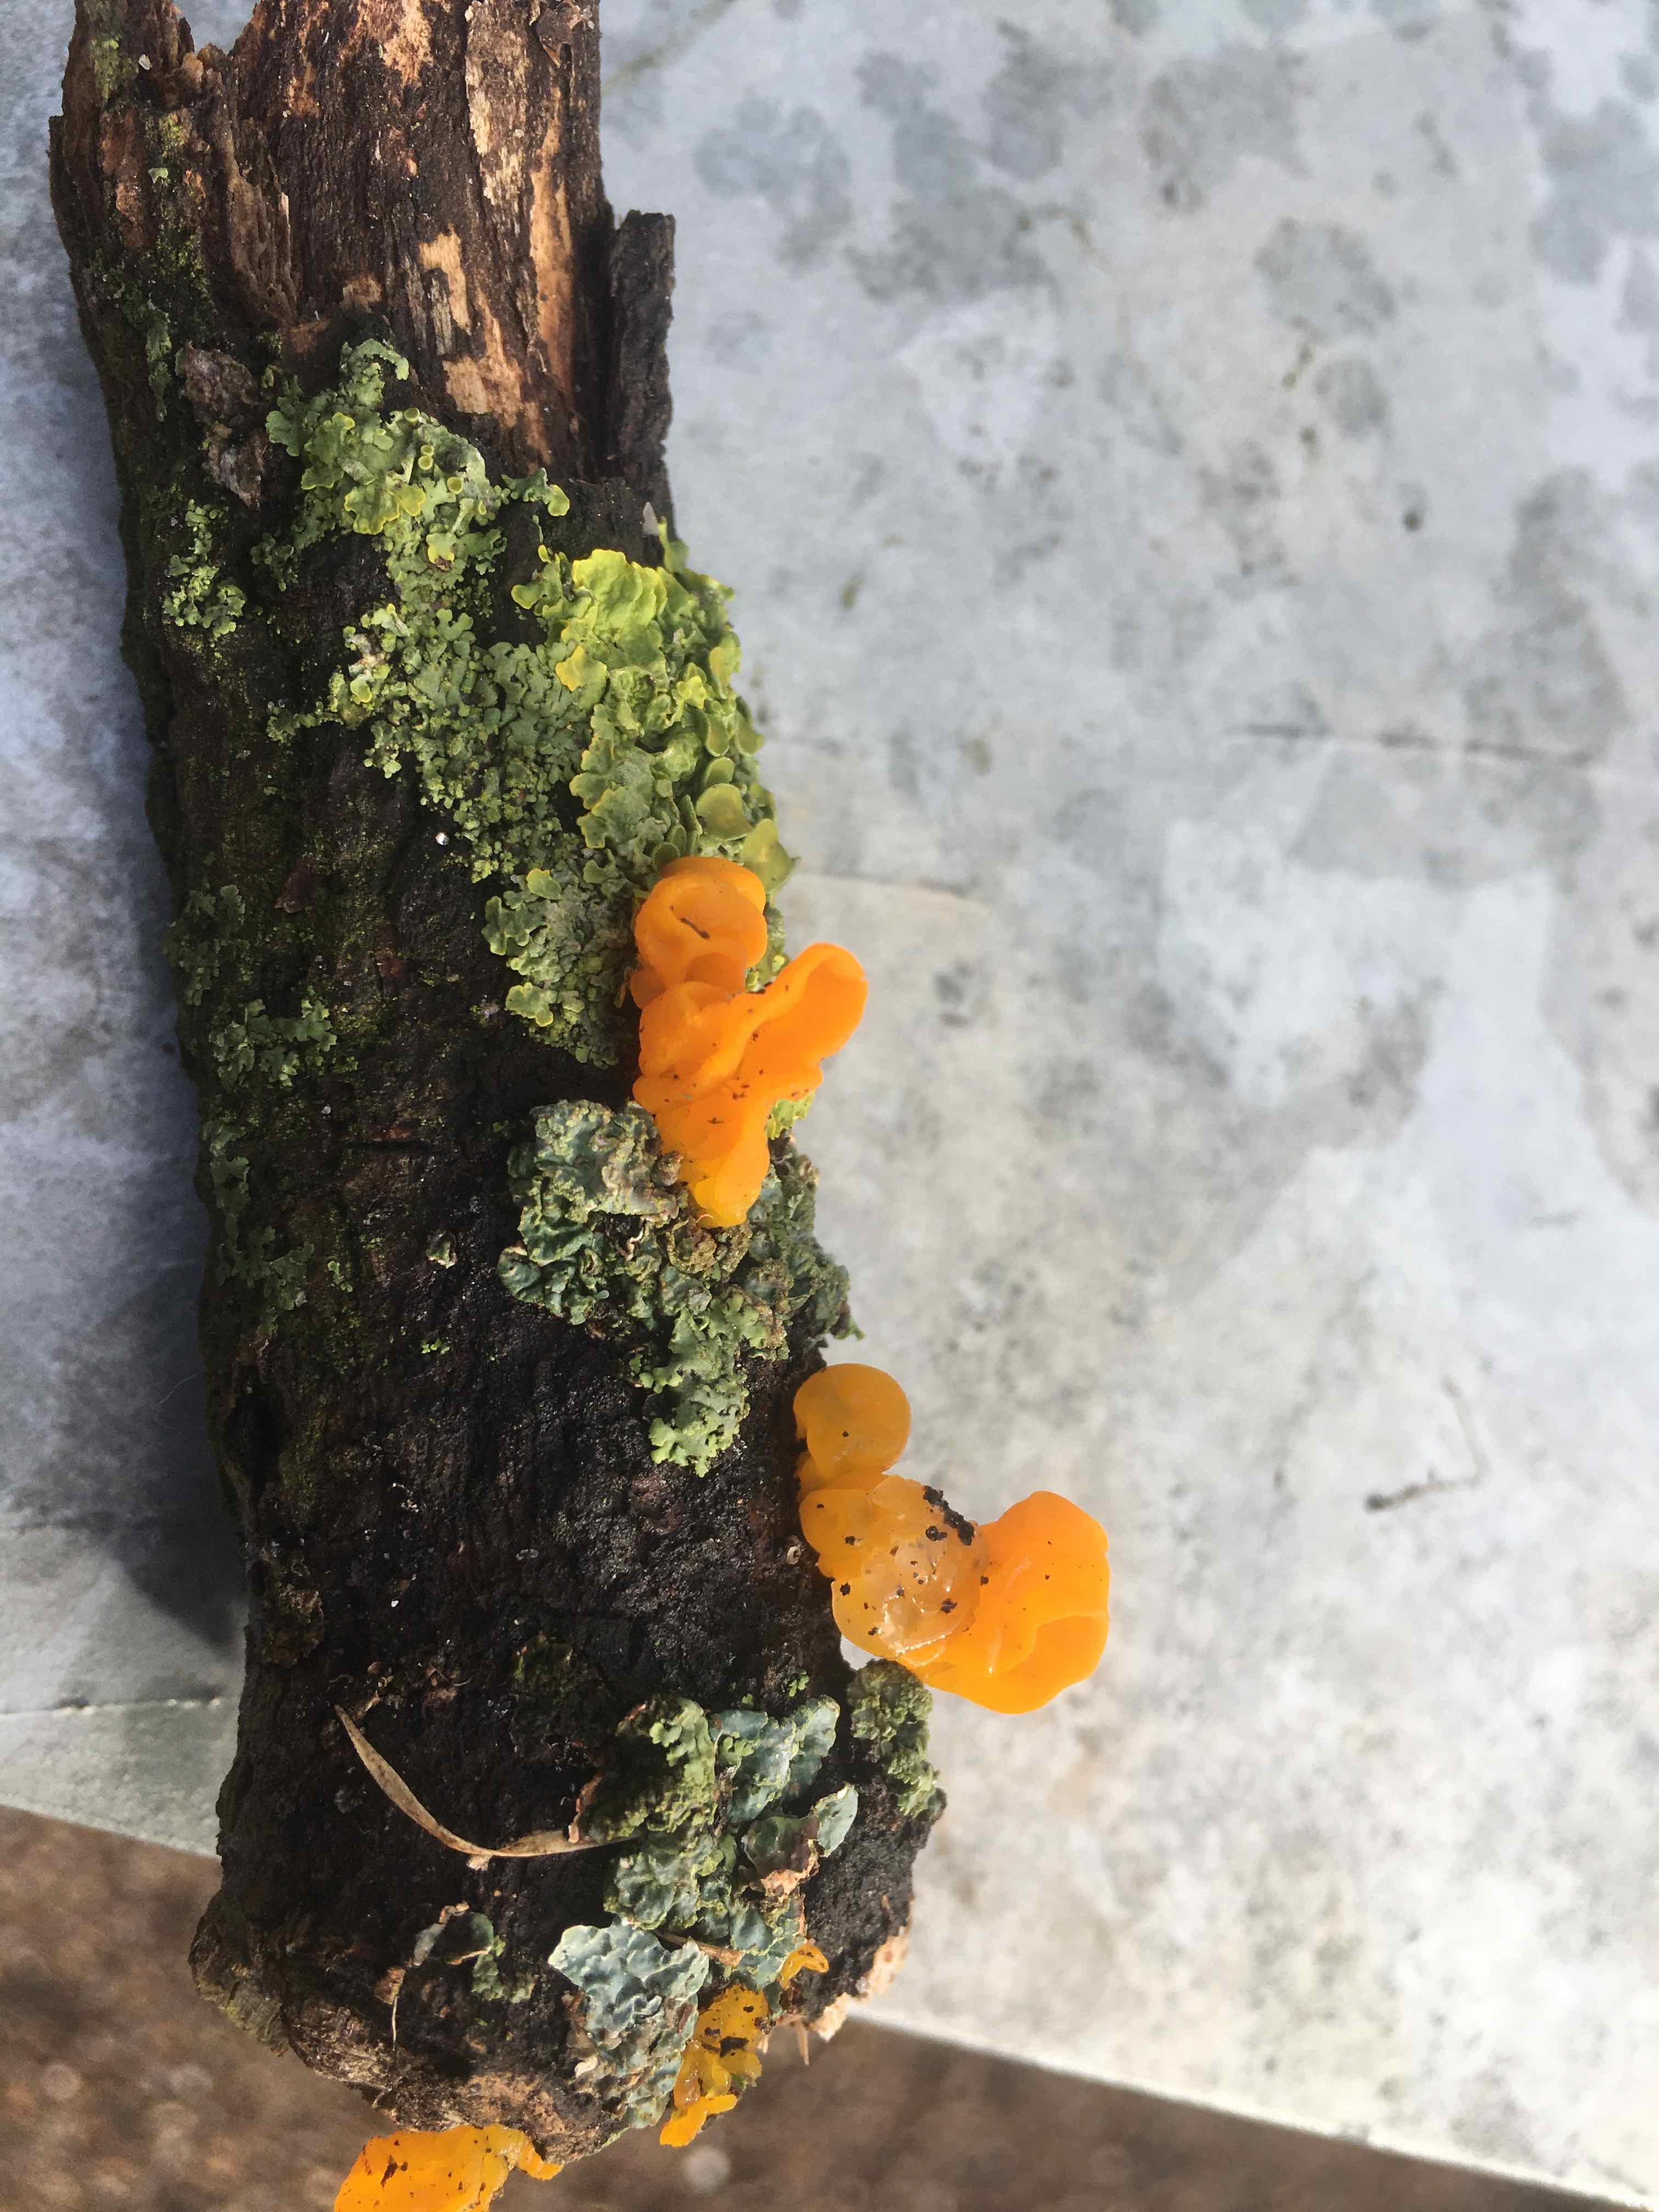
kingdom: Fungi
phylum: Basidiomycota
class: Tremellomycetes
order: Tremellales
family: Tremellaceae
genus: Tremella
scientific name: Tremella mesenterica
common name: gul bævresvamp
